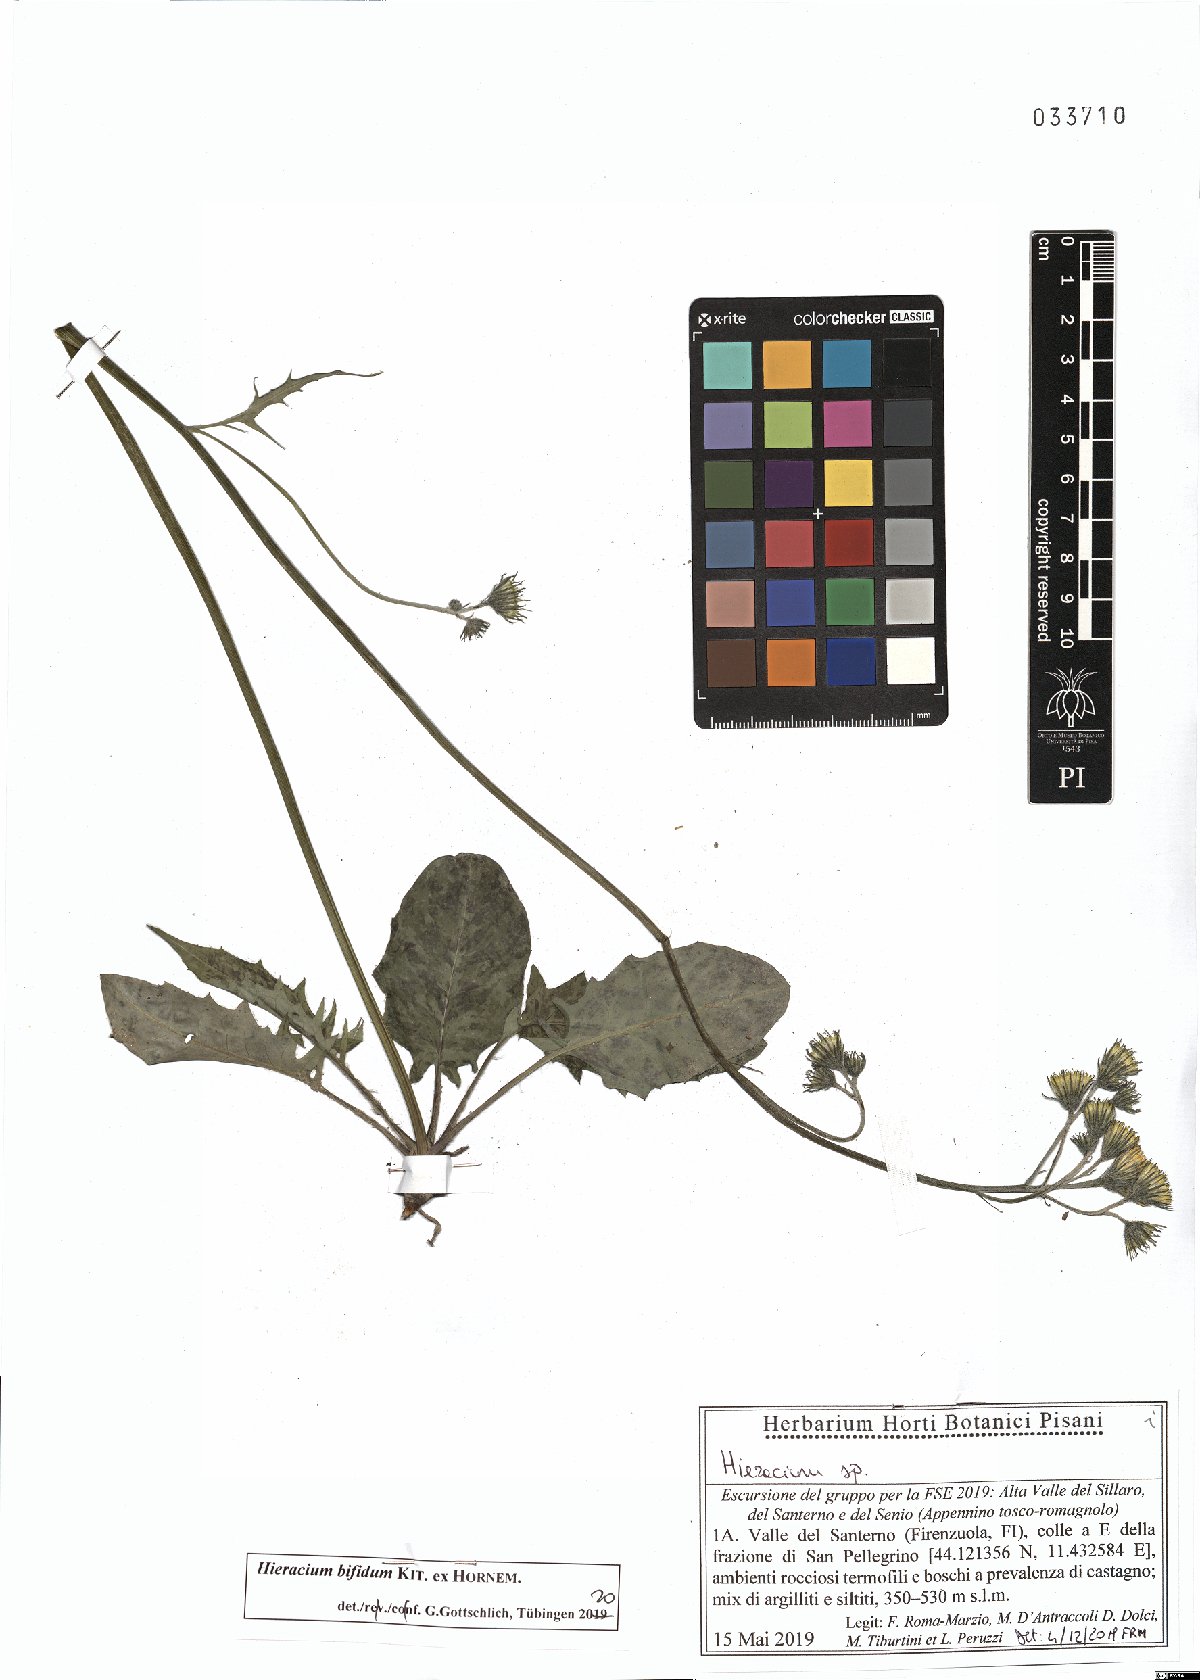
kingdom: Plantae
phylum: Tracheophyta
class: Magnoliopsida
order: Asterales
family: Asteraceae
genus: Hieracium
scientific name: Hieracium bifidum
